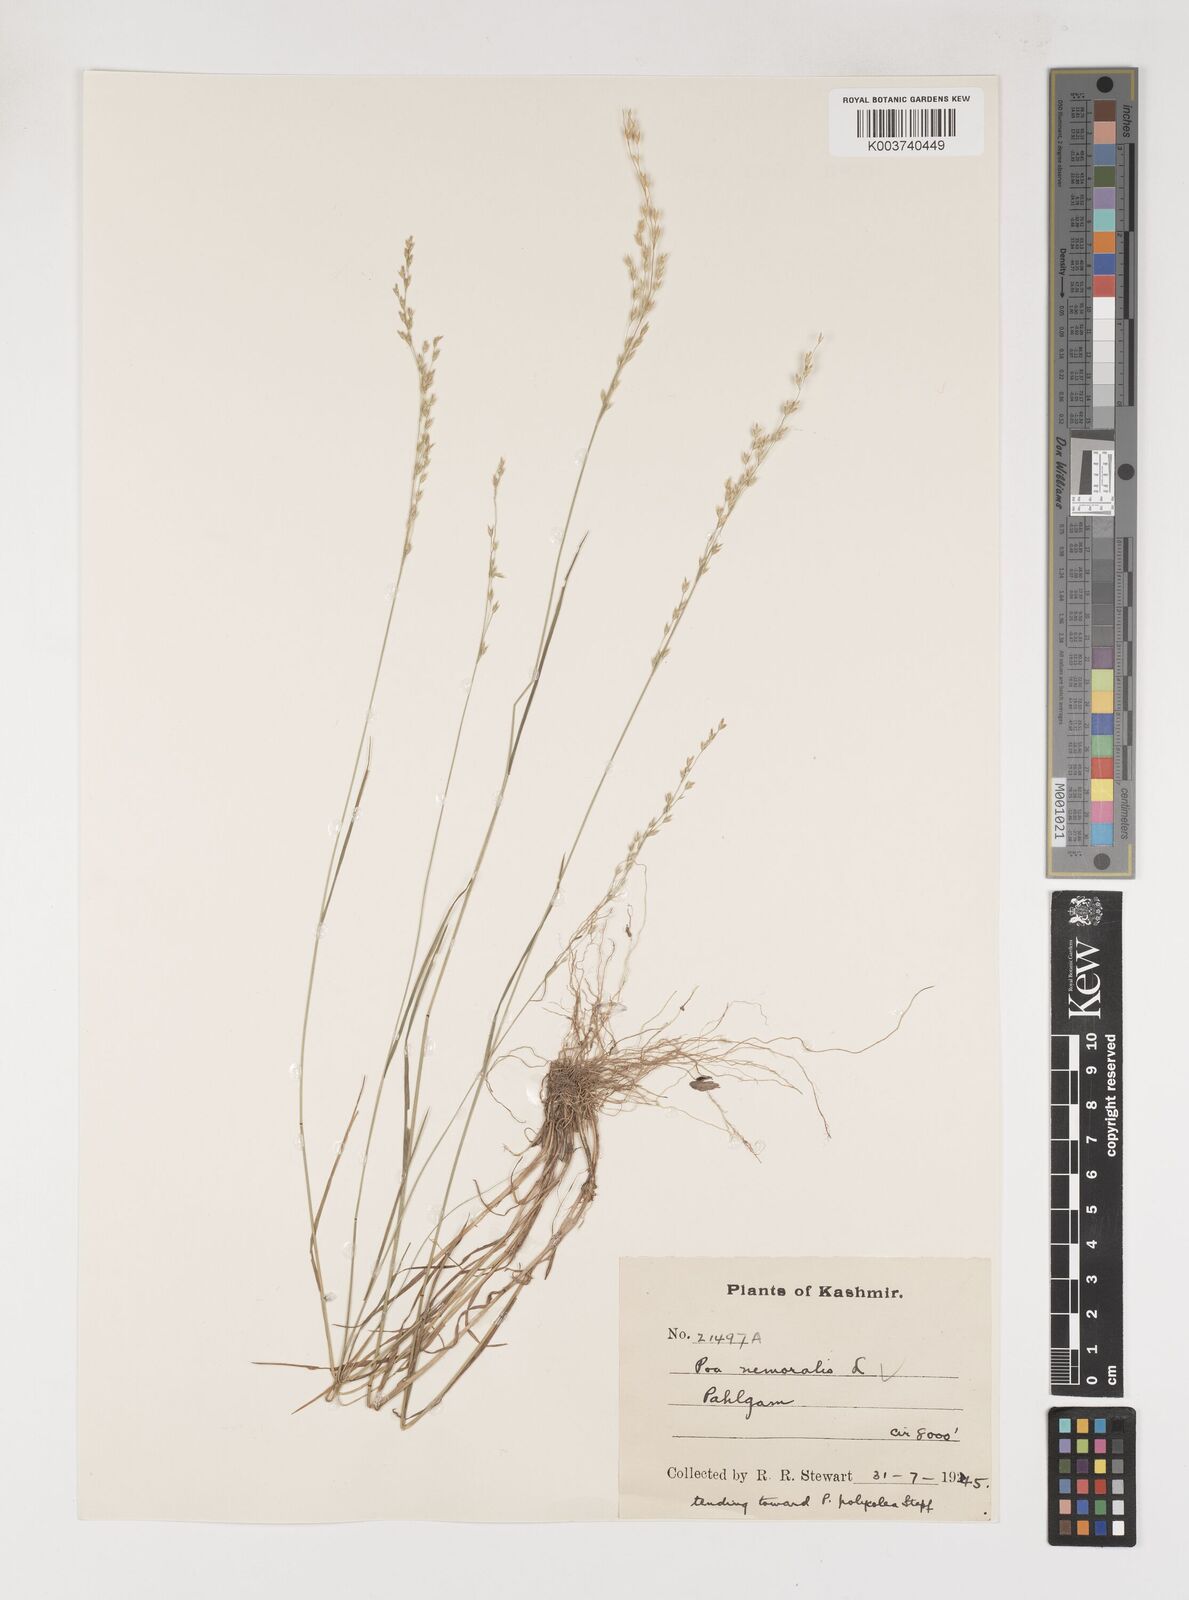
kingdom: Plantae
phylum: Tracheophyta
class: Liliopsida
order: Poales
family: Poaceae
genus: Poa
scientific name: Poa nemoralis
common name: Wood bluegrass
